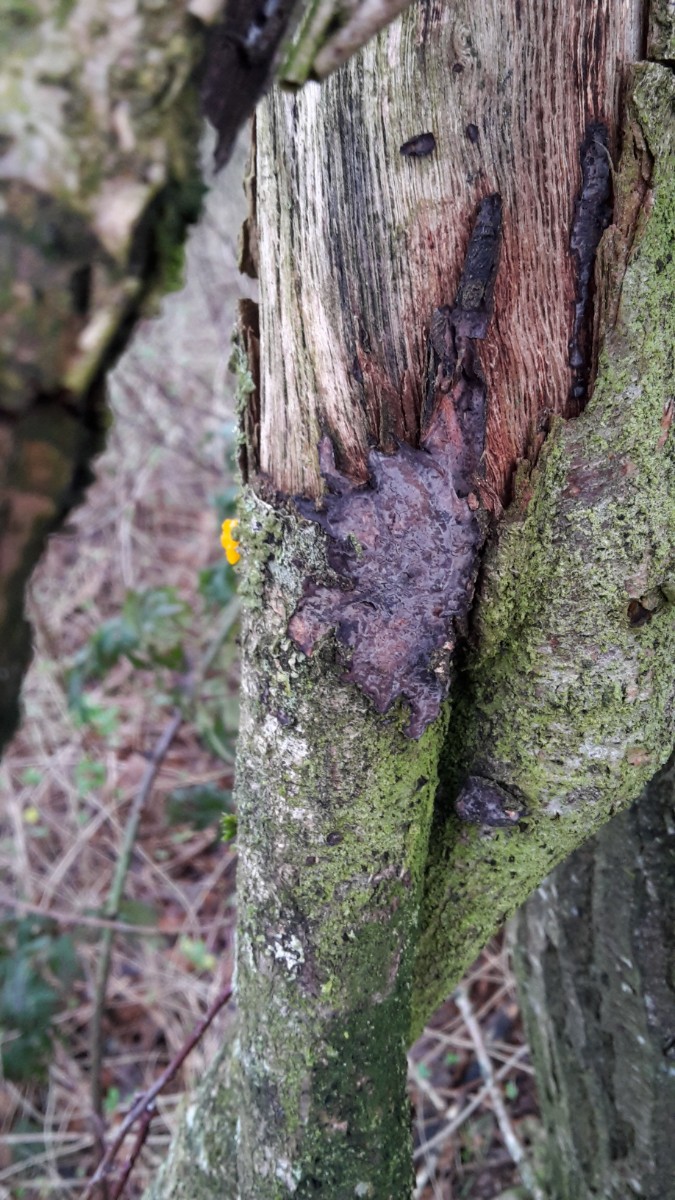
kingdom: Fungi
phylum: Basidiomycota
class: Agaricomycetes
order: Russulales
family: Peniophoraceae
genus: Peniophora
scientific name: Peniophora quercina
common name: ege-voksskind
